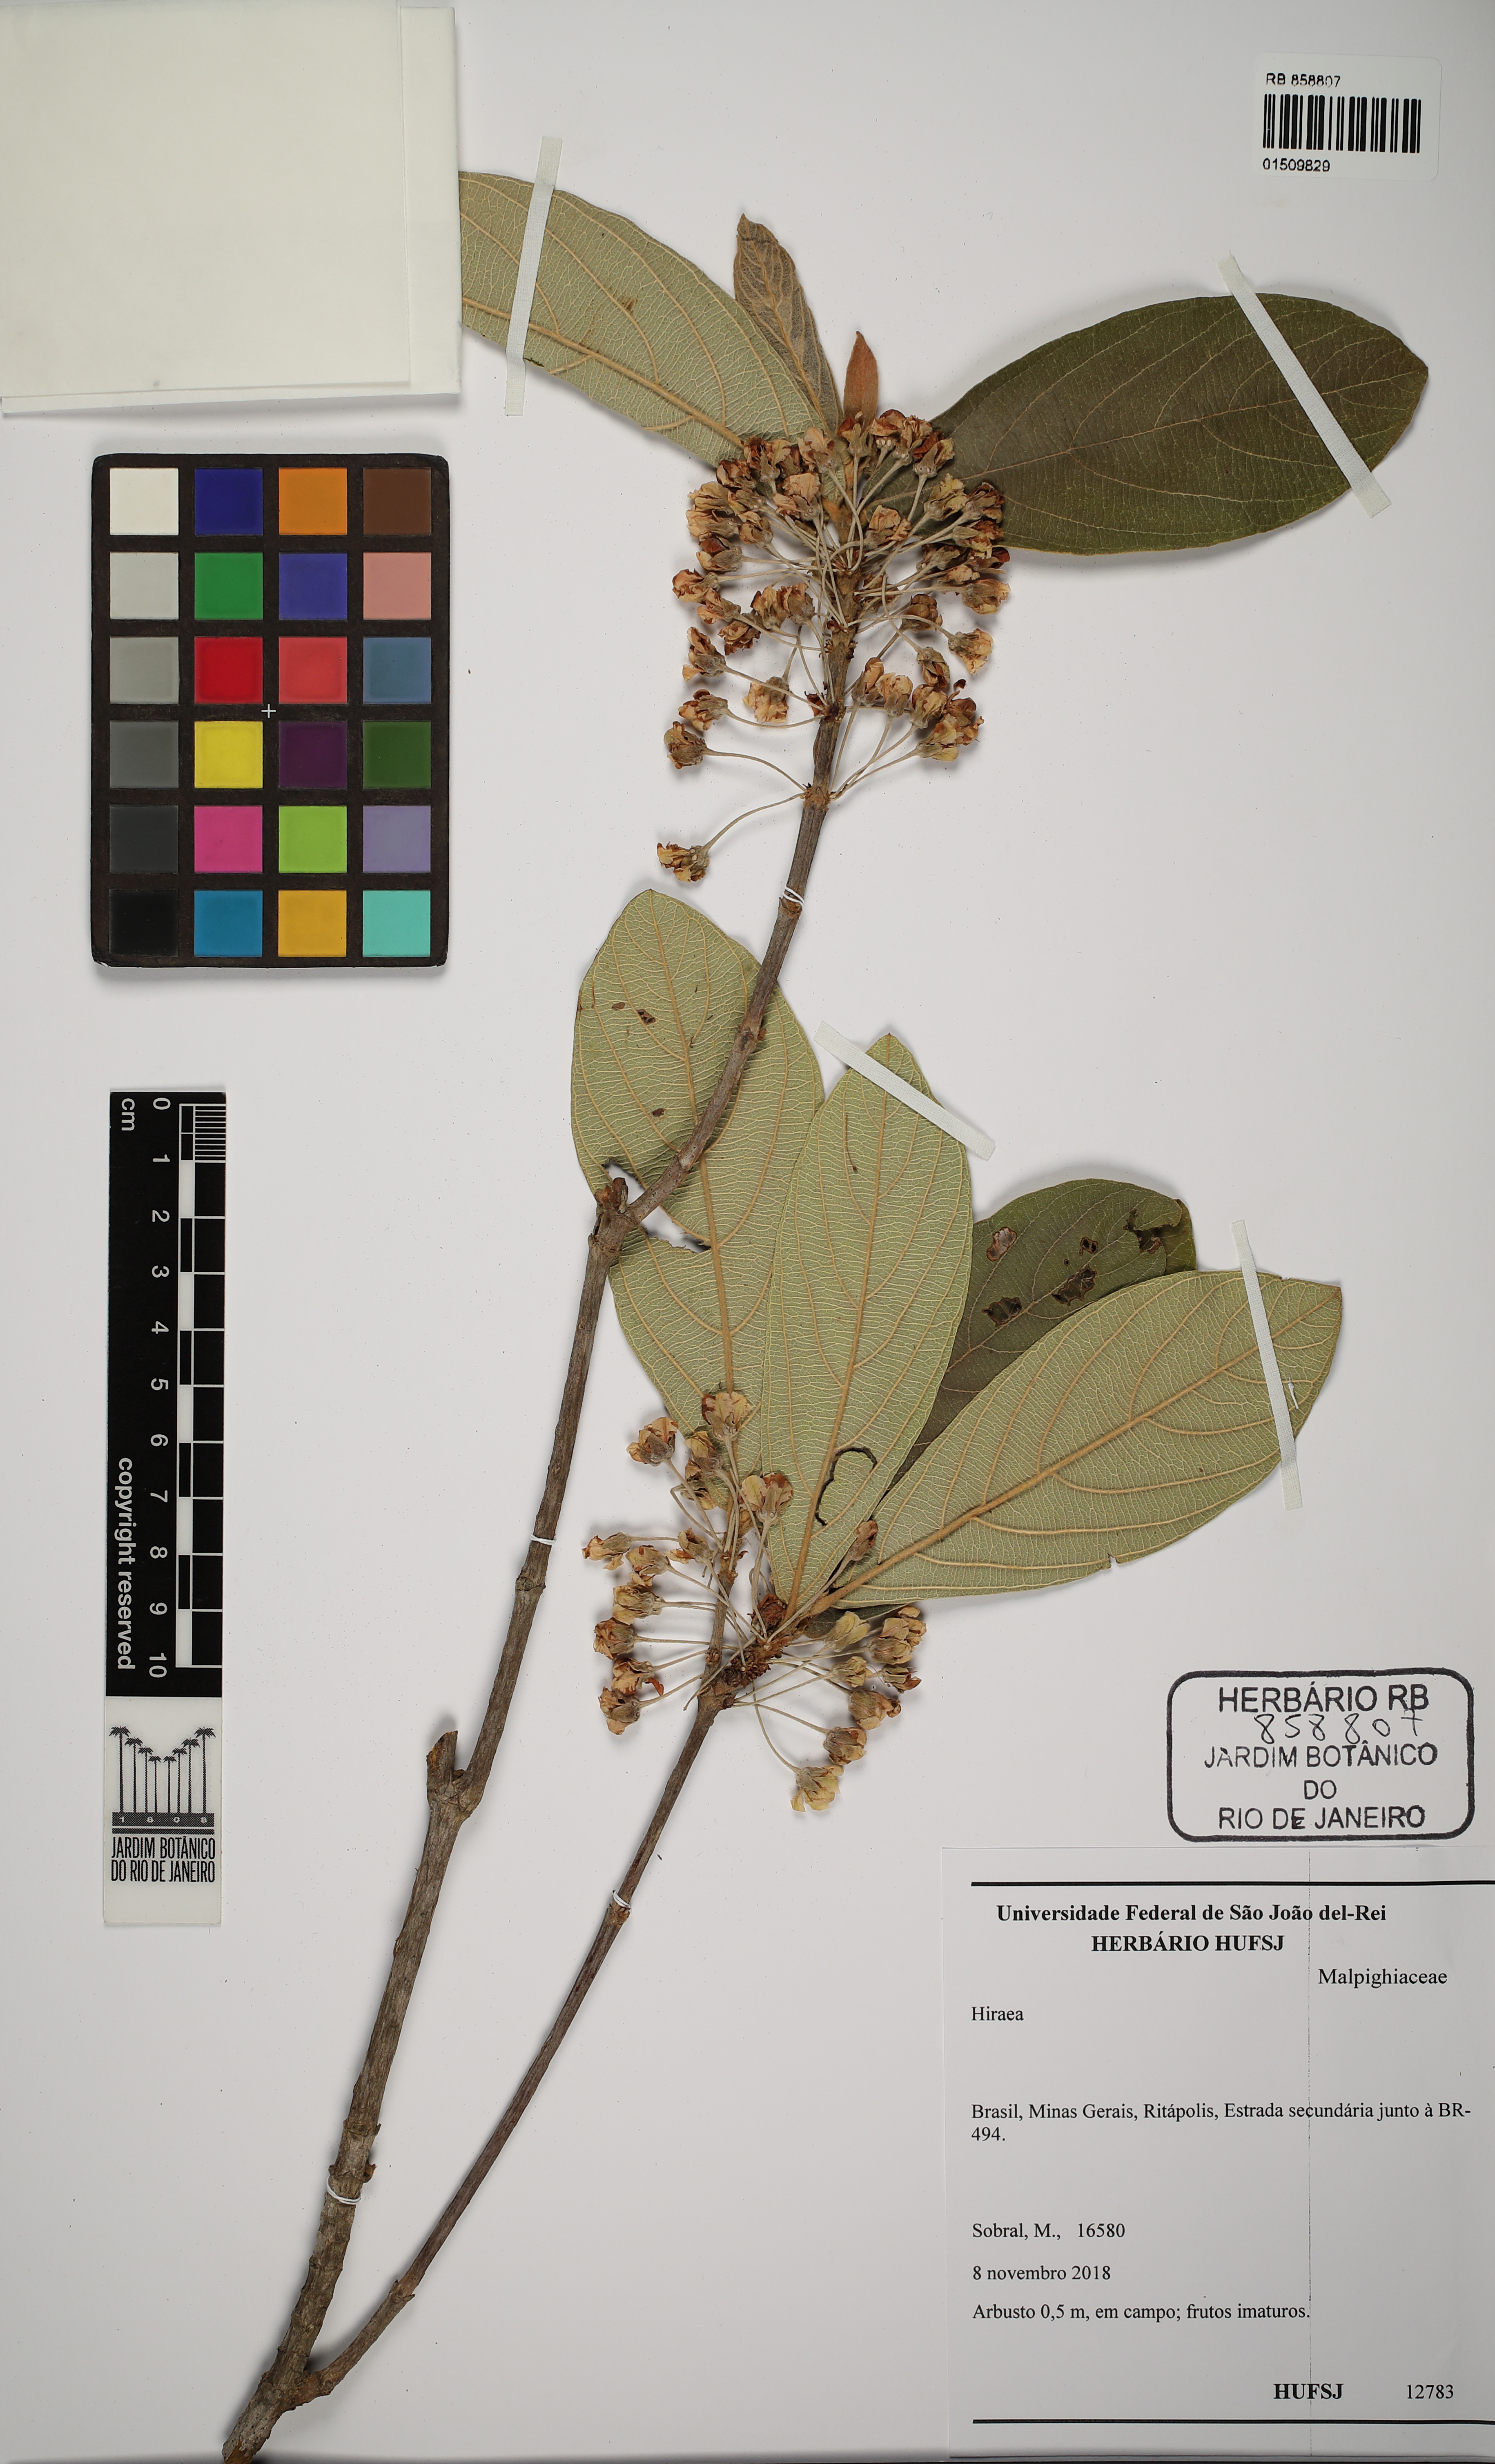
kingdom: Plantae
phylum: Tracheophyta
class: Magnoliopsida
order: Malpighiales
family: Malpighiaceae
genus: Hiraea
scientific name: Hiraea
